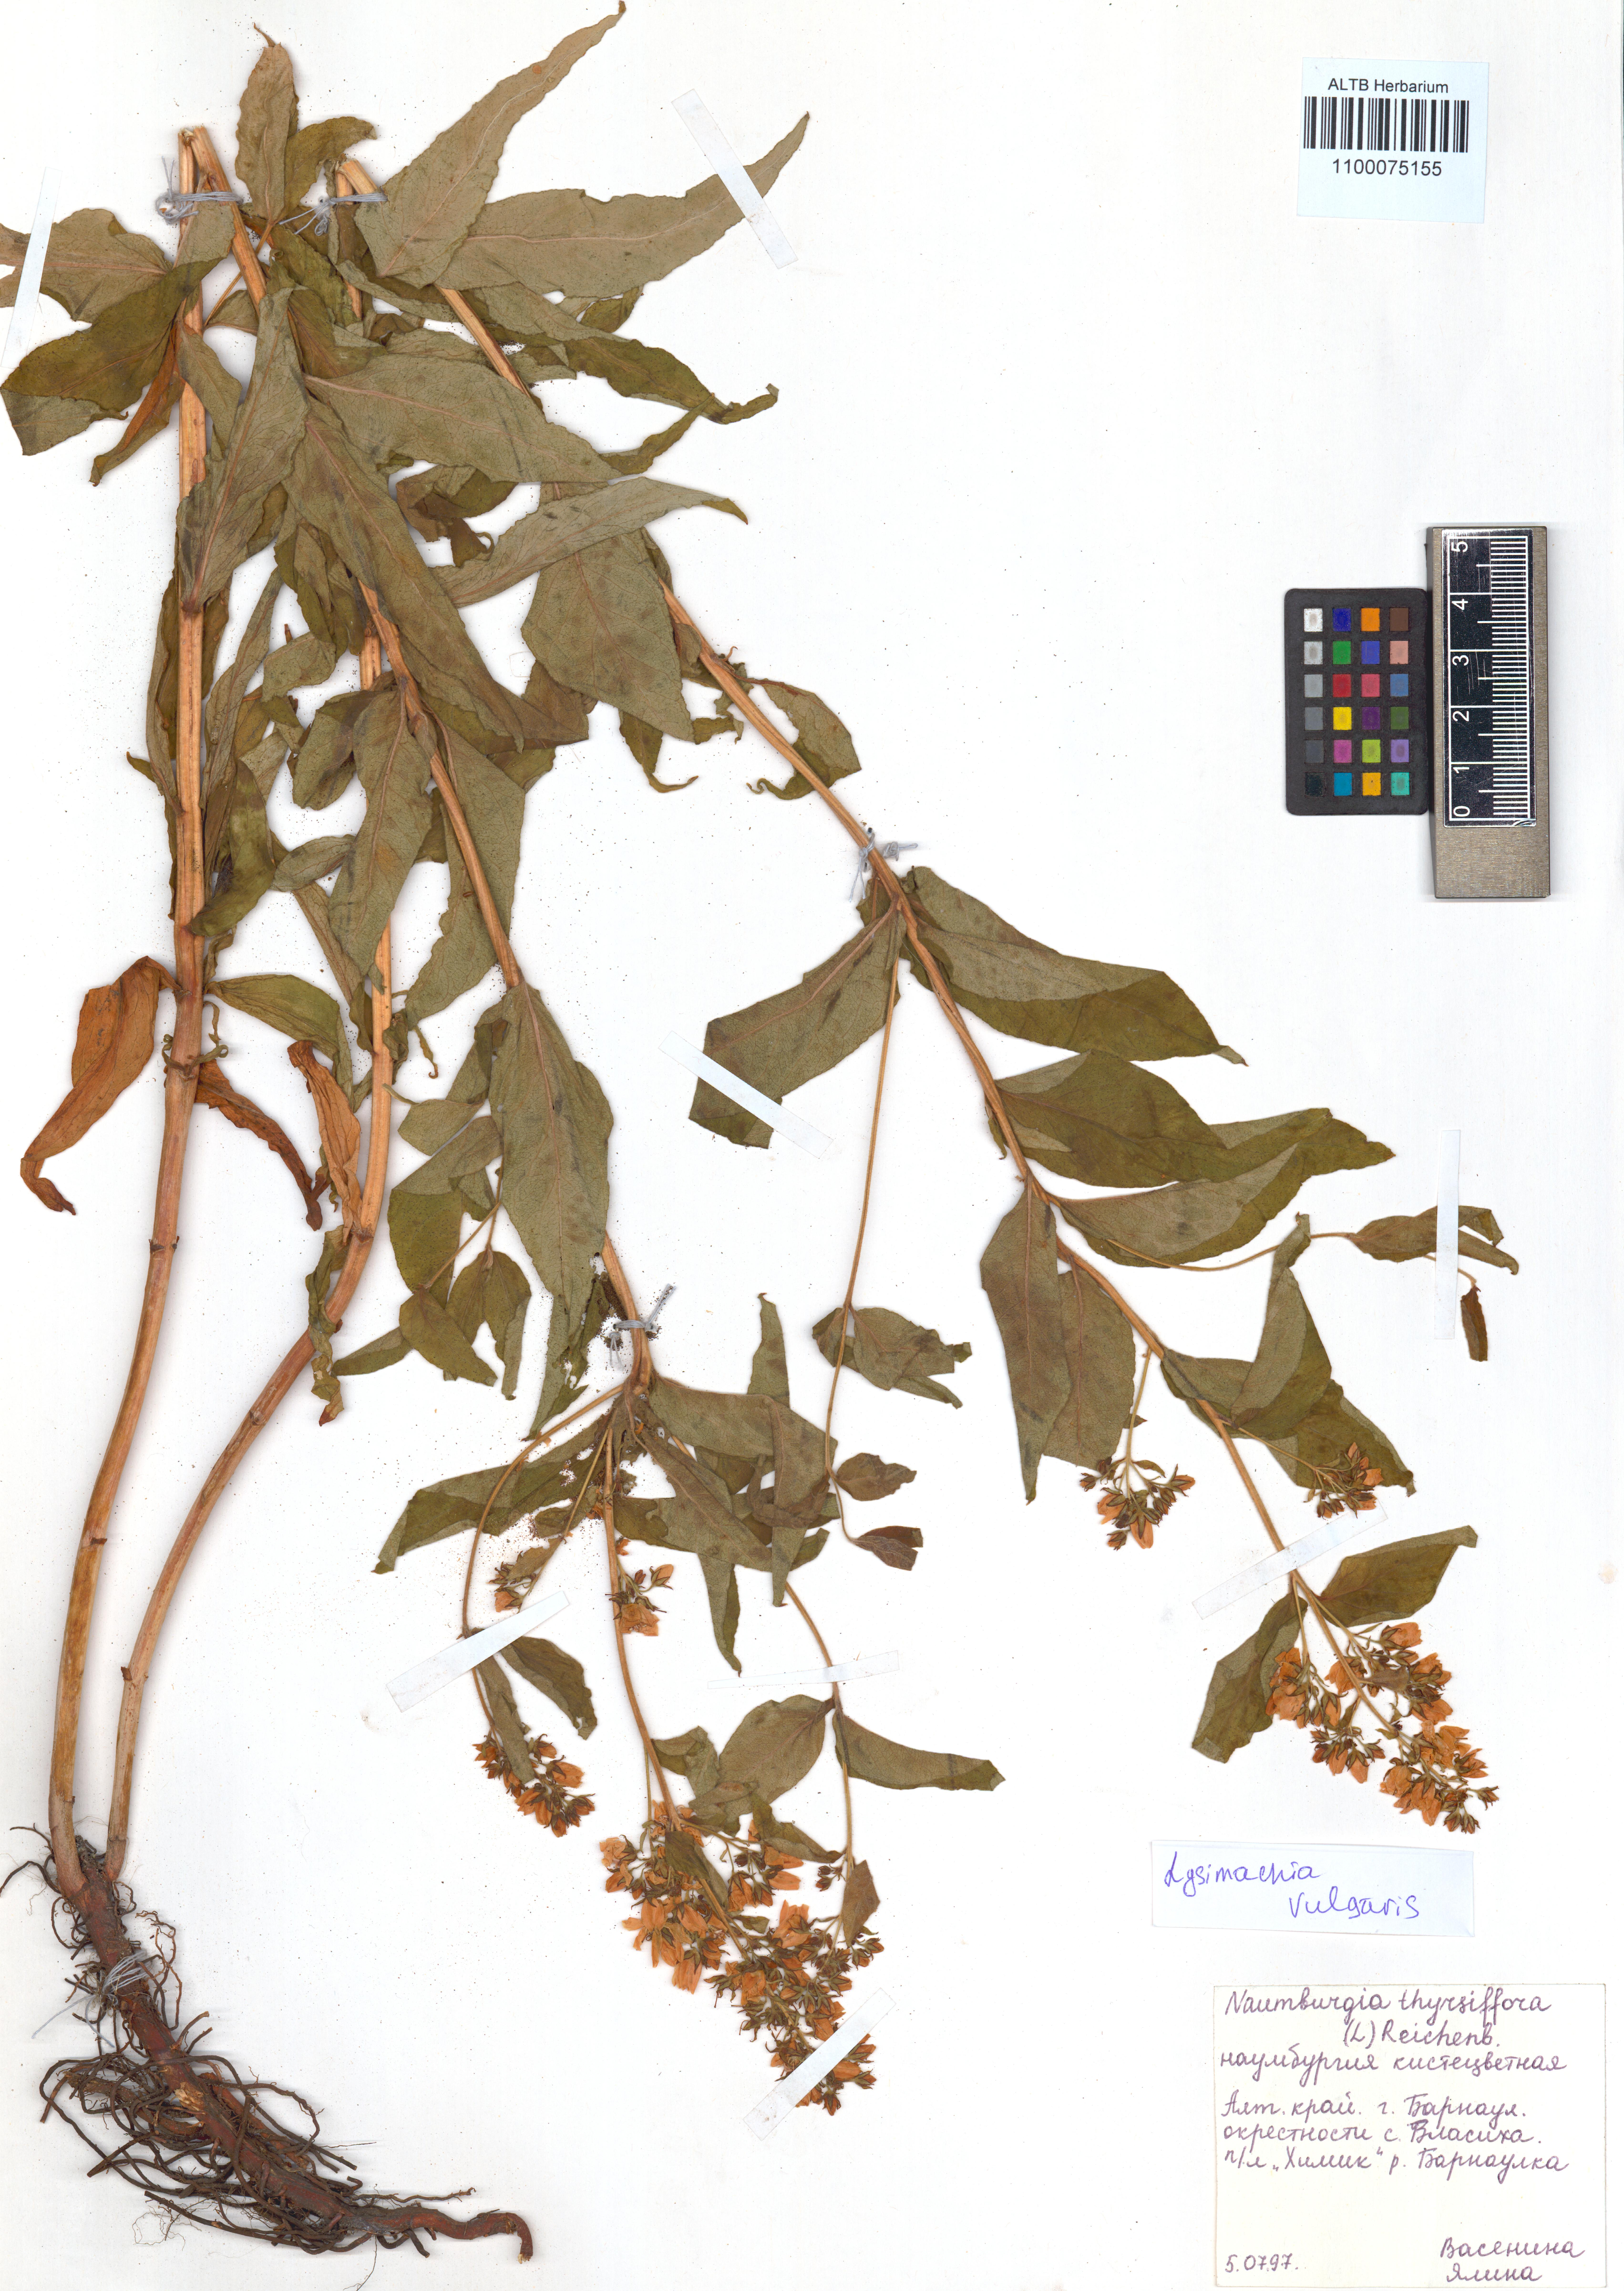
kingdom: Plantae
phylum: Tracheophyta
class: Magnoliopsida
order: Ericales
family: Primulaceae
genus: Lysimachia
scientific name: Lysimachia vulgaris
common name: Yellow loosestrife
